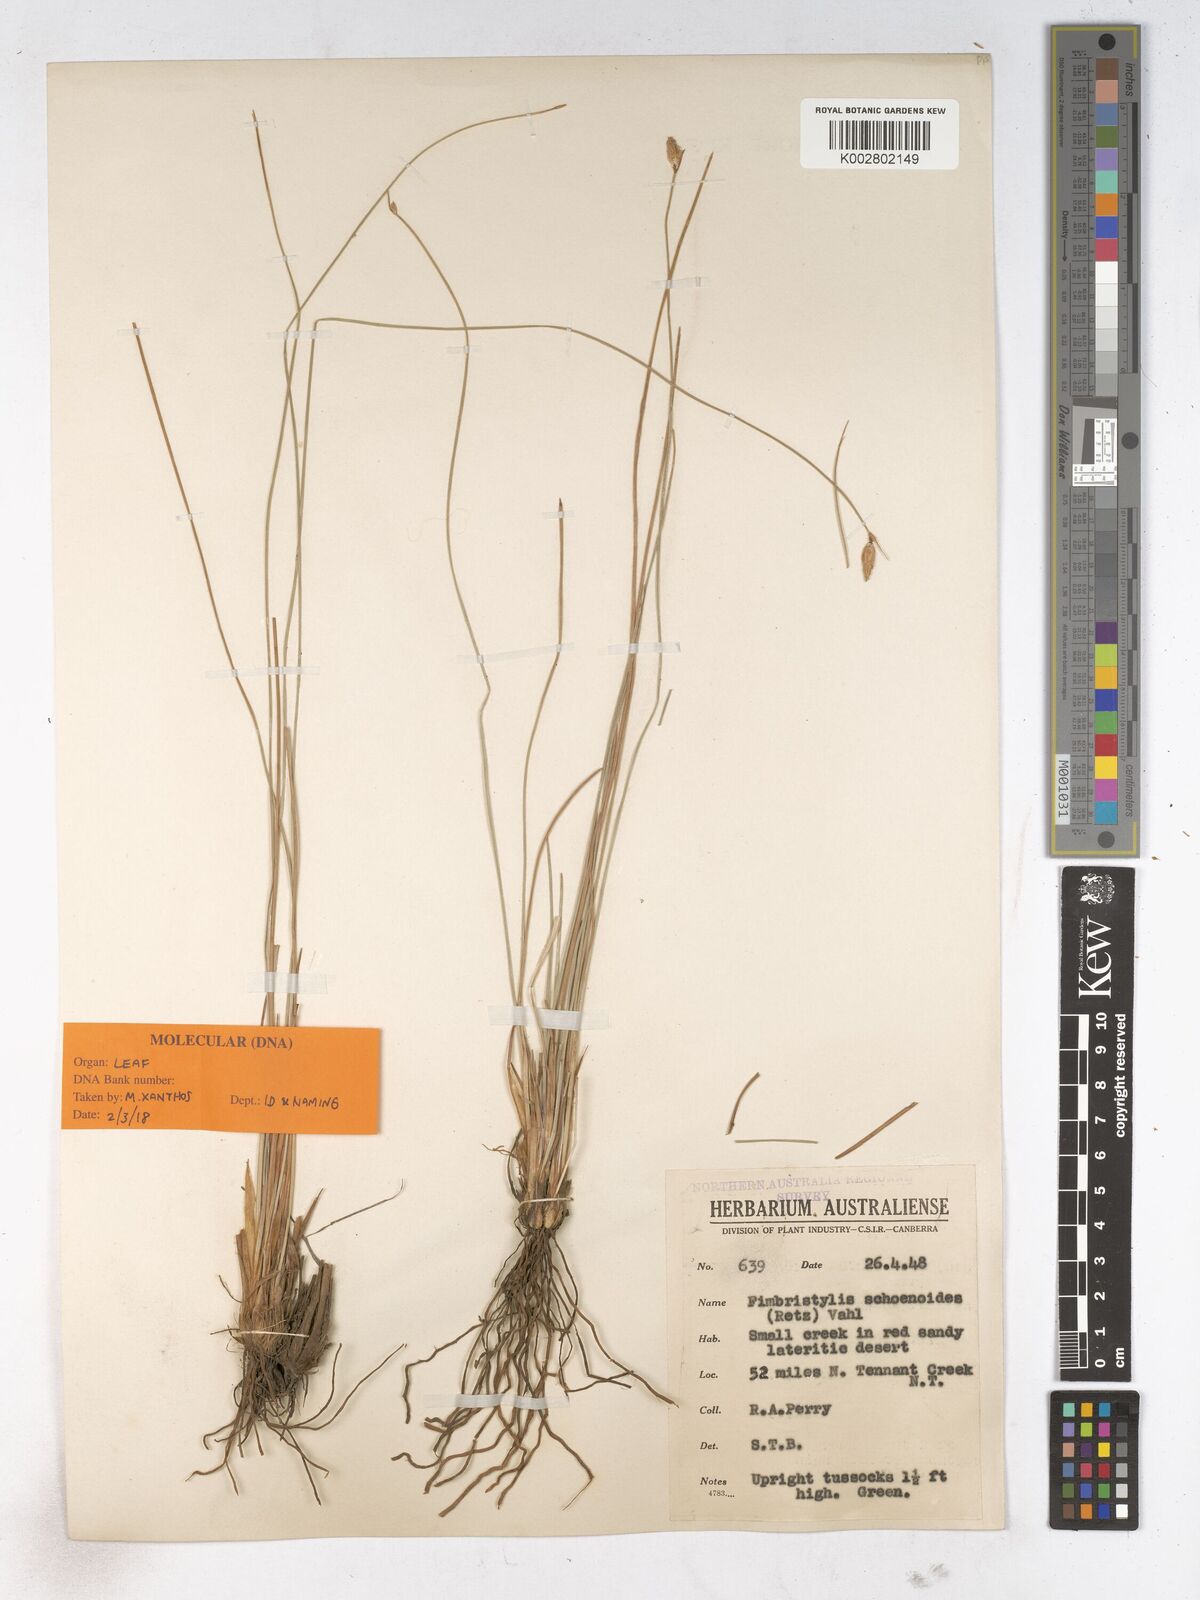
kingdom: Plantae
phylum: Tracheophyta
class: Liliopsida
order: Poales
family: Cyperaceae
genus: Fimbristylis
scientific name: Fimbristylis schoenoides
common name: Ditch fimbry
